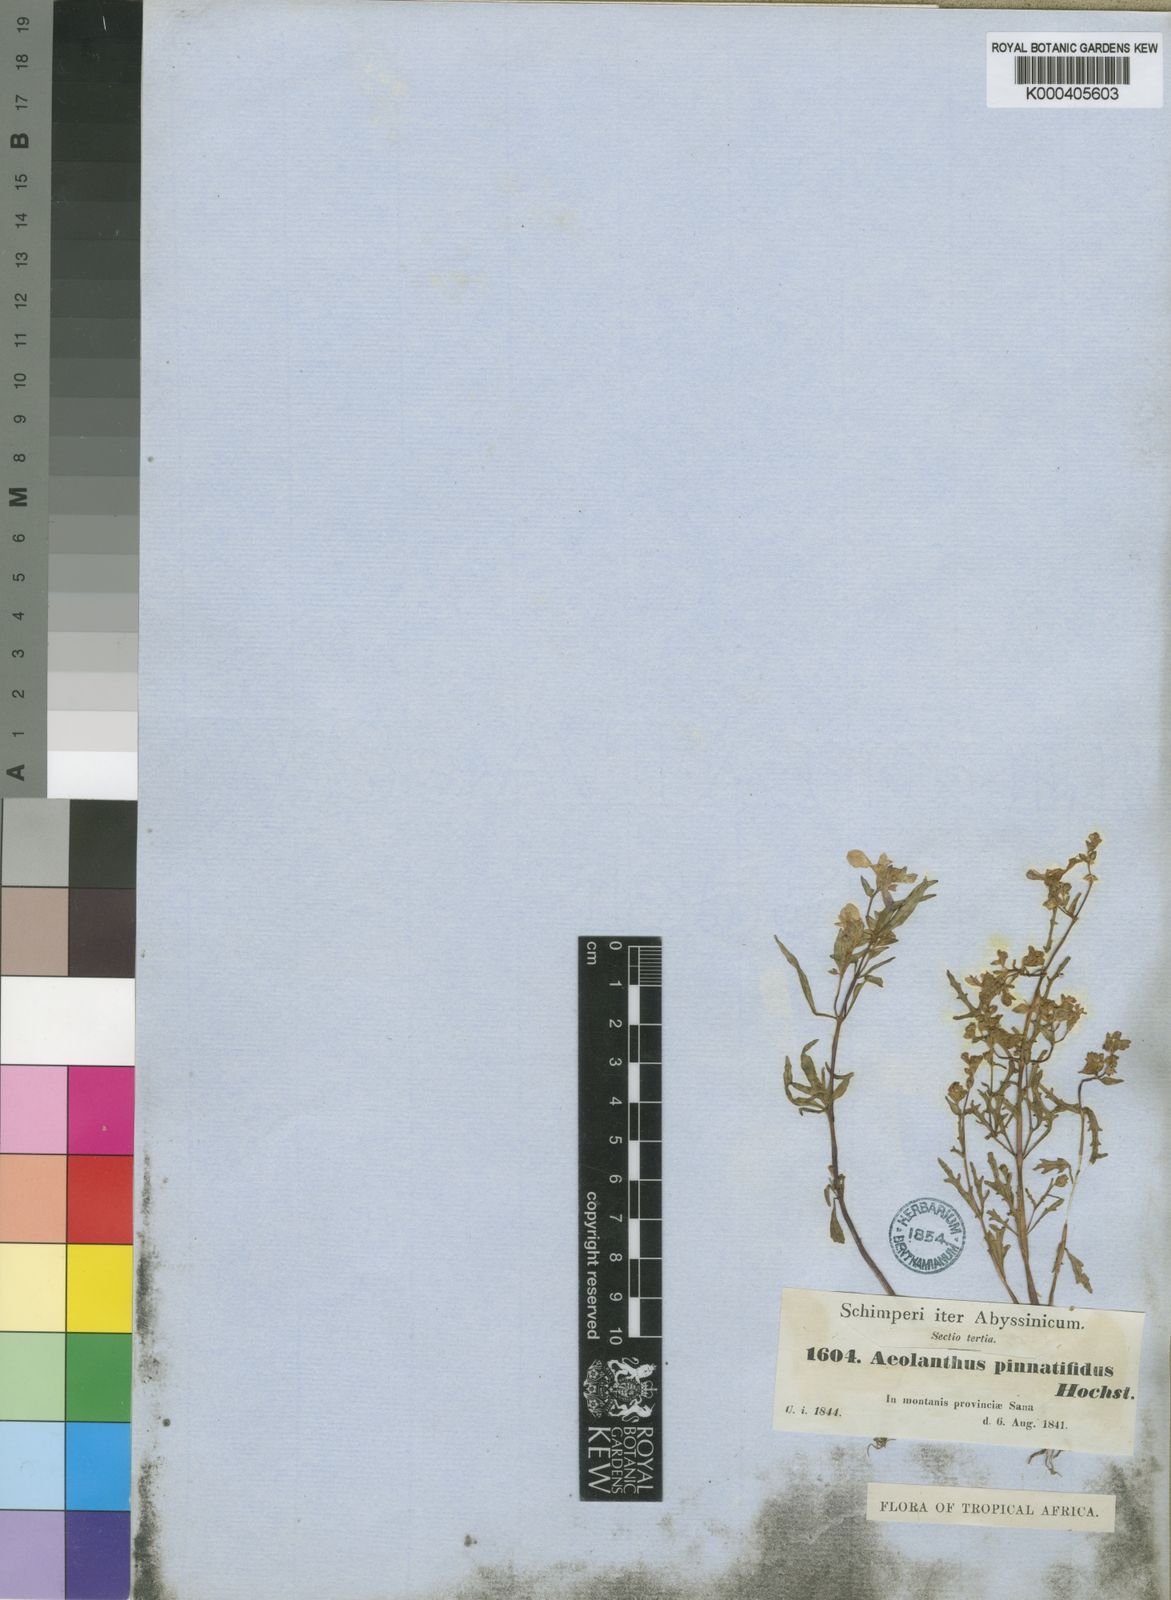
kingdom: Plantae
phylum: Tracheophyta
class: Magnoliopsida
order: Lamiales
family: Lamiaceae
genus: Aeollanthus
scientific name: Aeollanthus pinnatifidus
